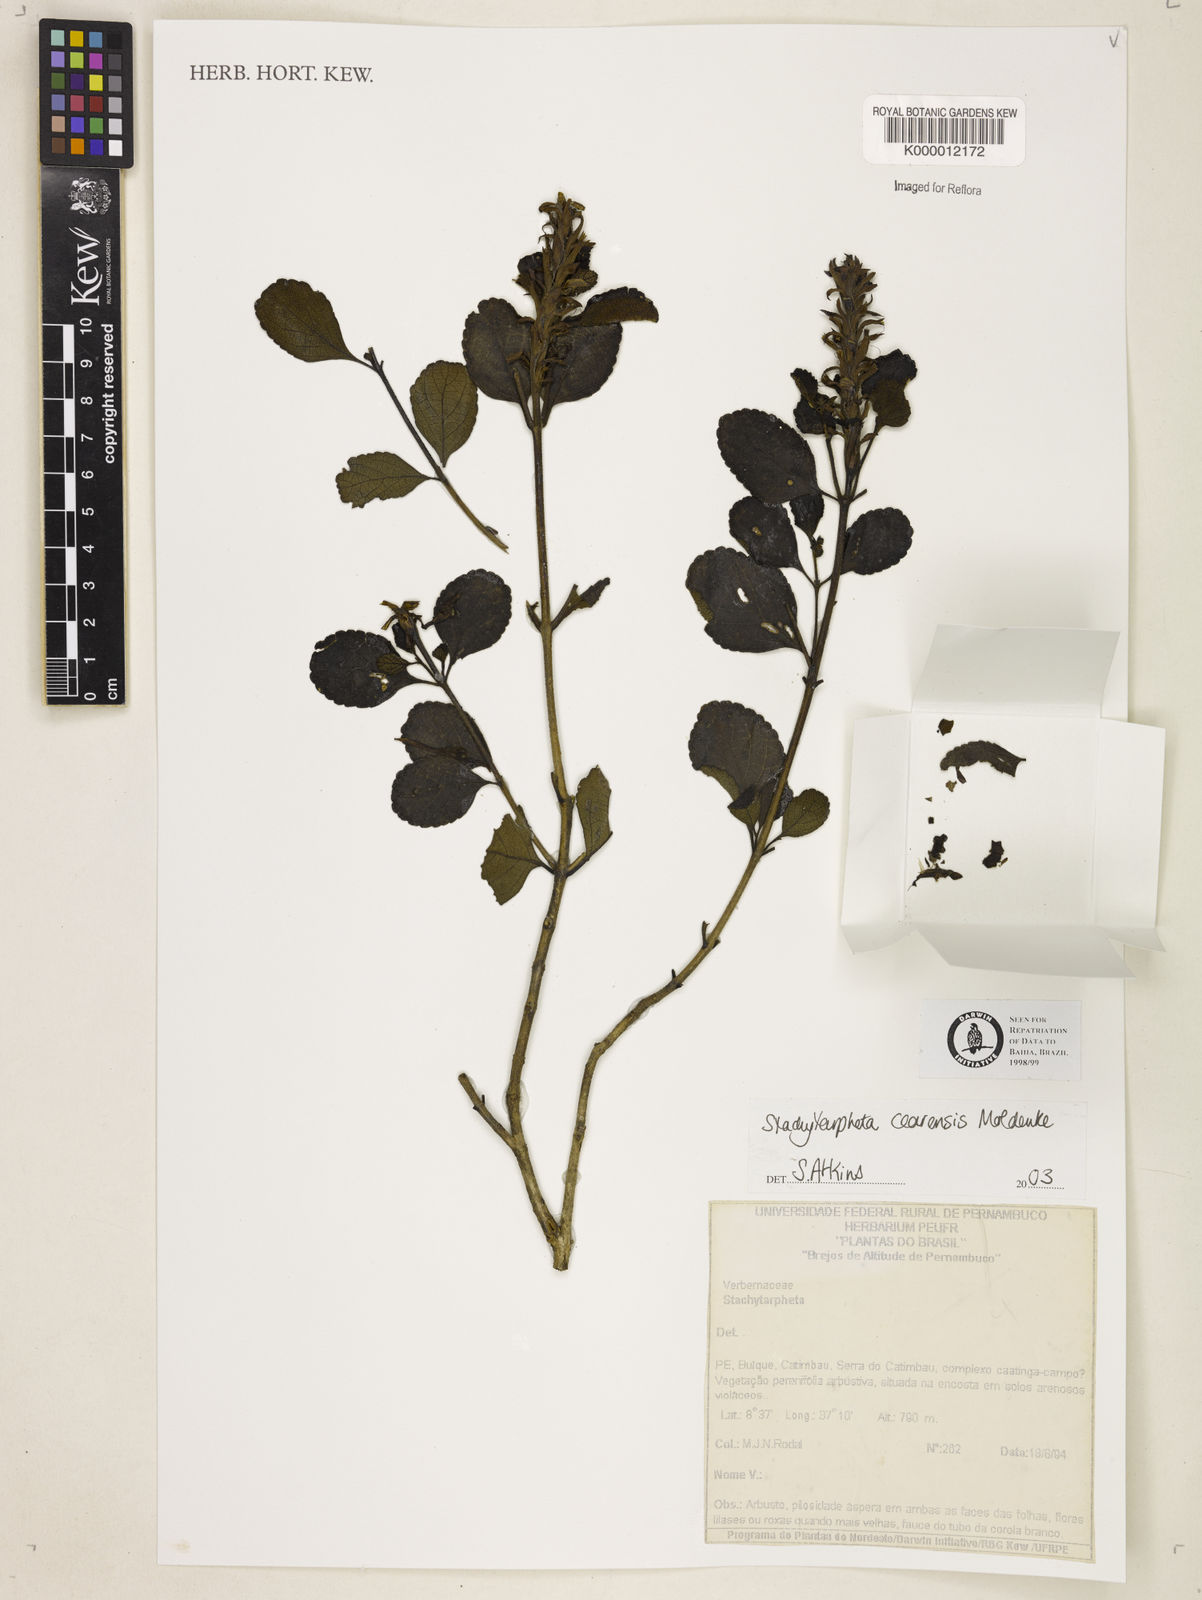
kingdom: Plantae
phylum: Tracheophyta
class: Magnoliopsida
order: Lamiales
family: Verbenaceae
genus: Stachytarpheta
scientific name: Stachytarpheta
